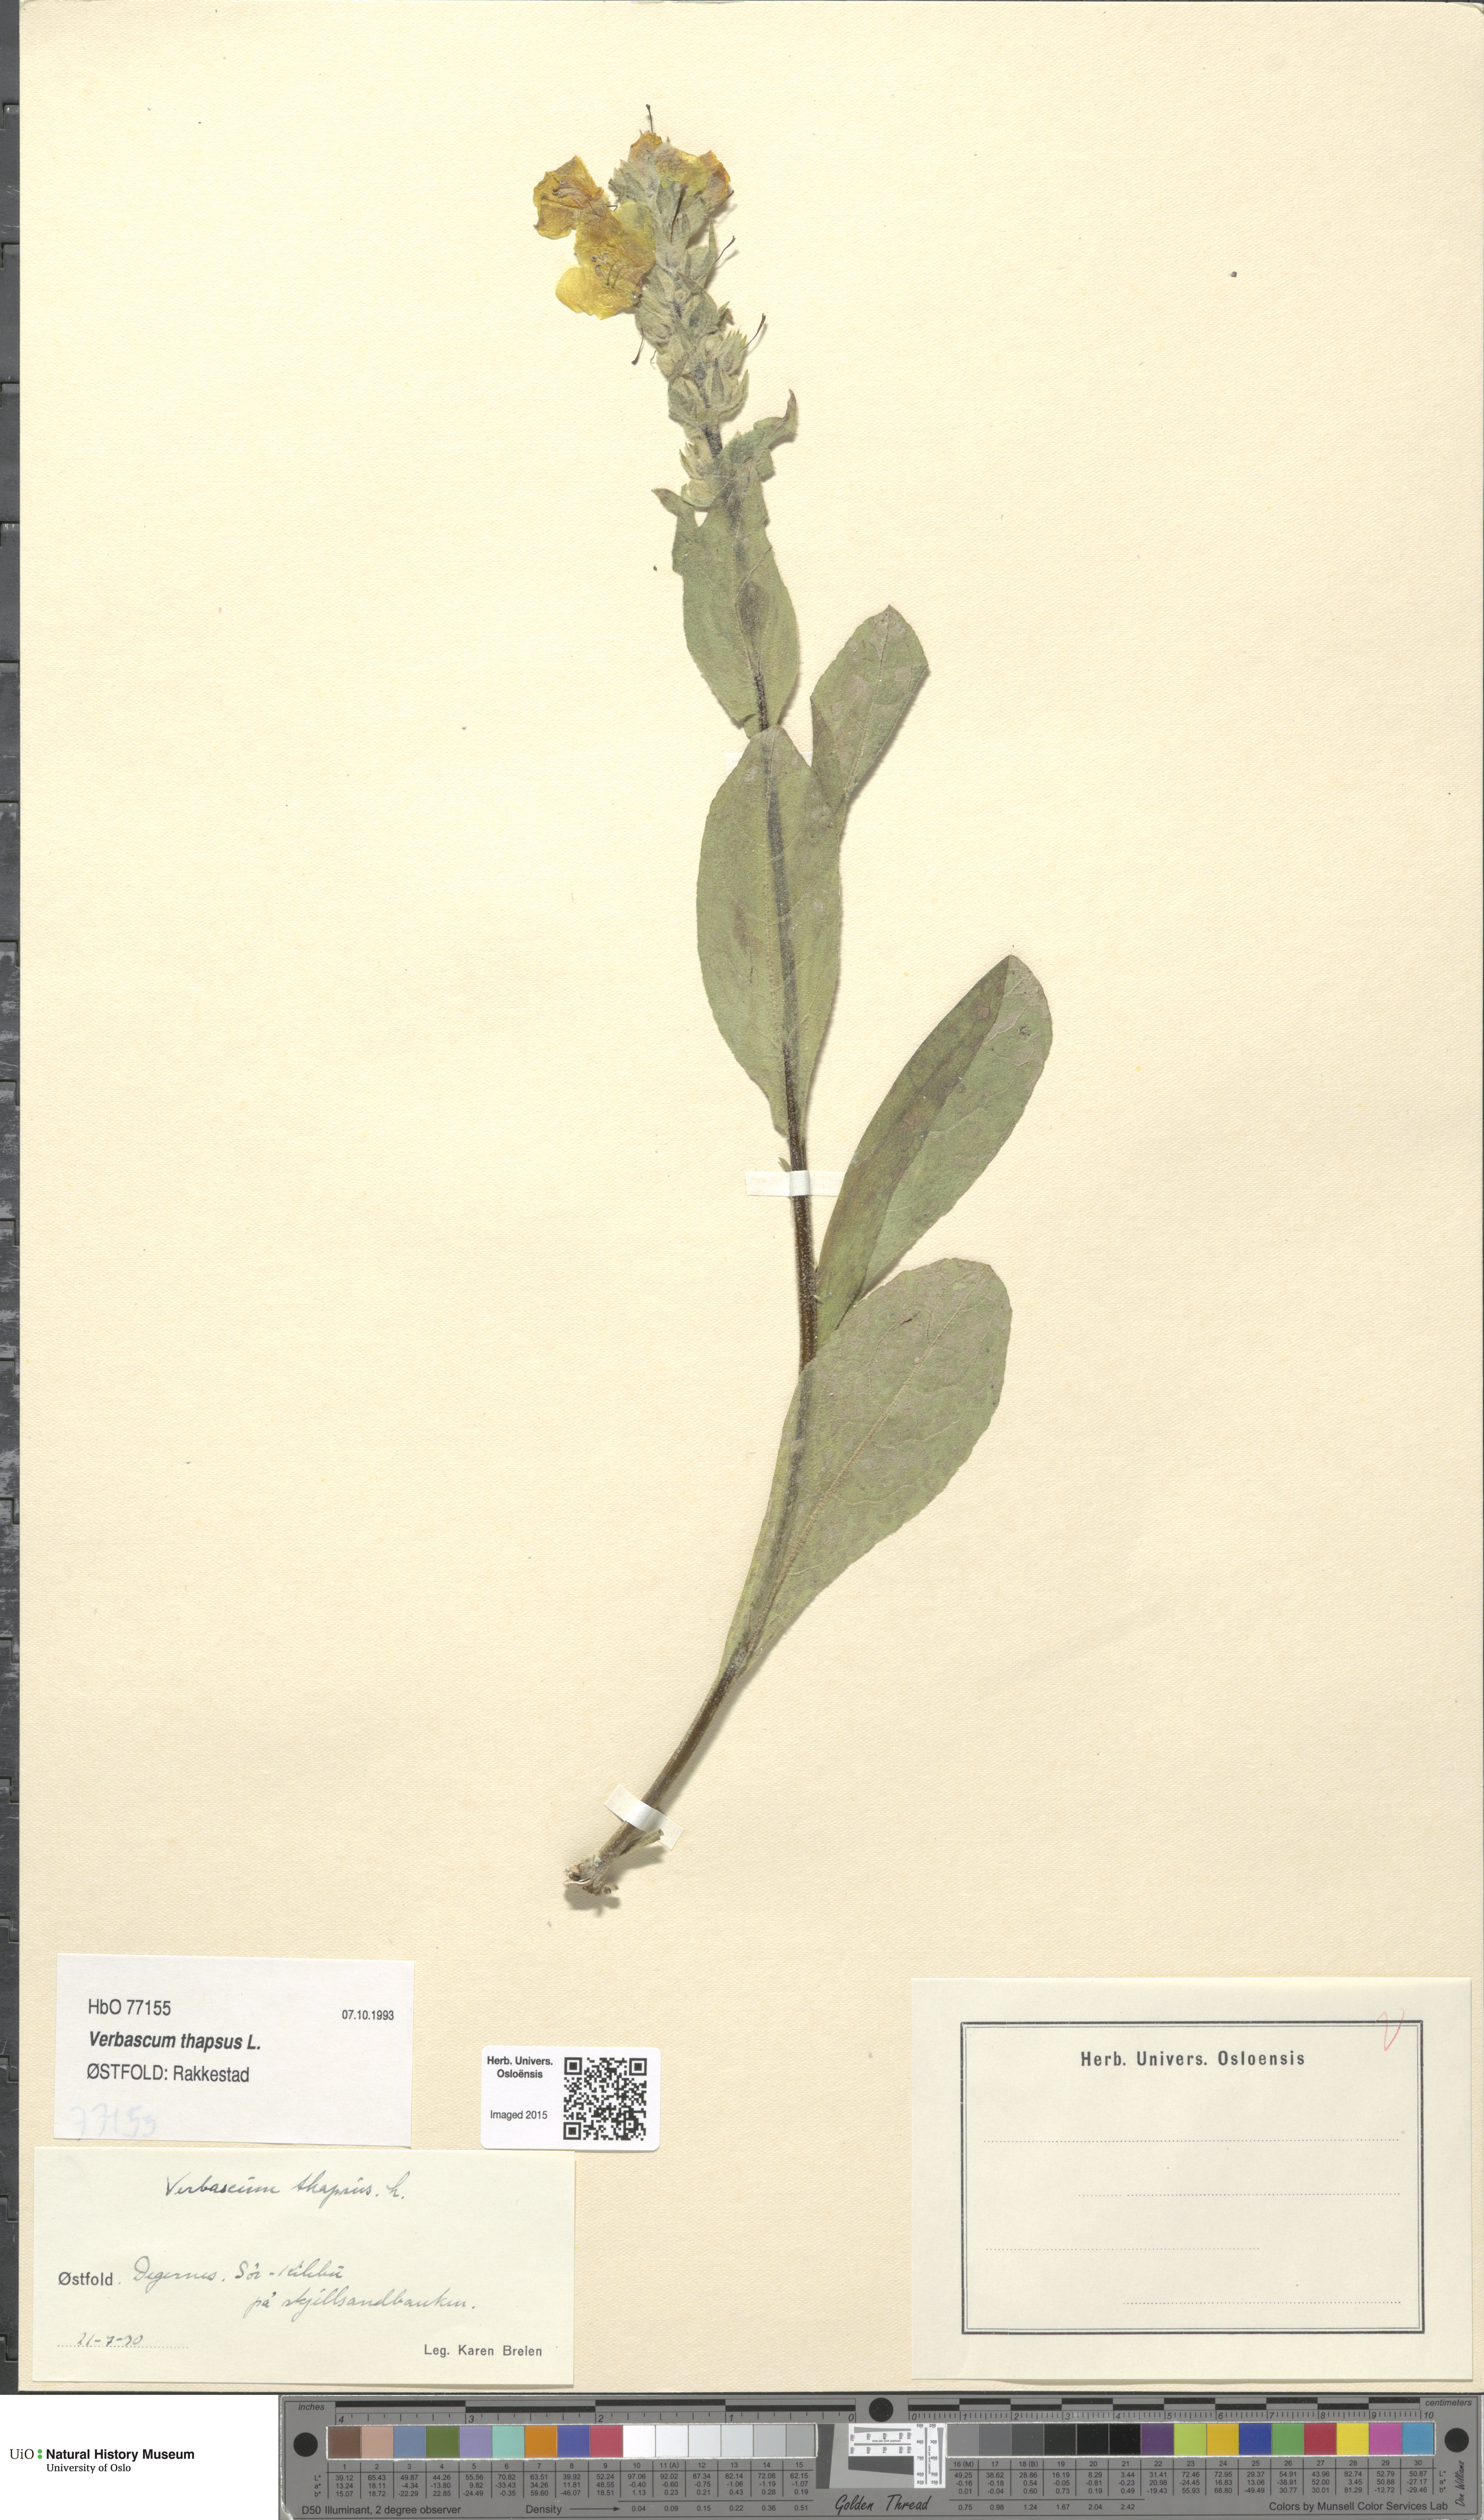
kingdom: Plantae
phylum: Tracheophyta
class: Magnoliopsida
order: Lamiales
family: Scrophulariaceae
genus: Verbascum
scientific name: Verbascum thapsus
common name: Common mullein
